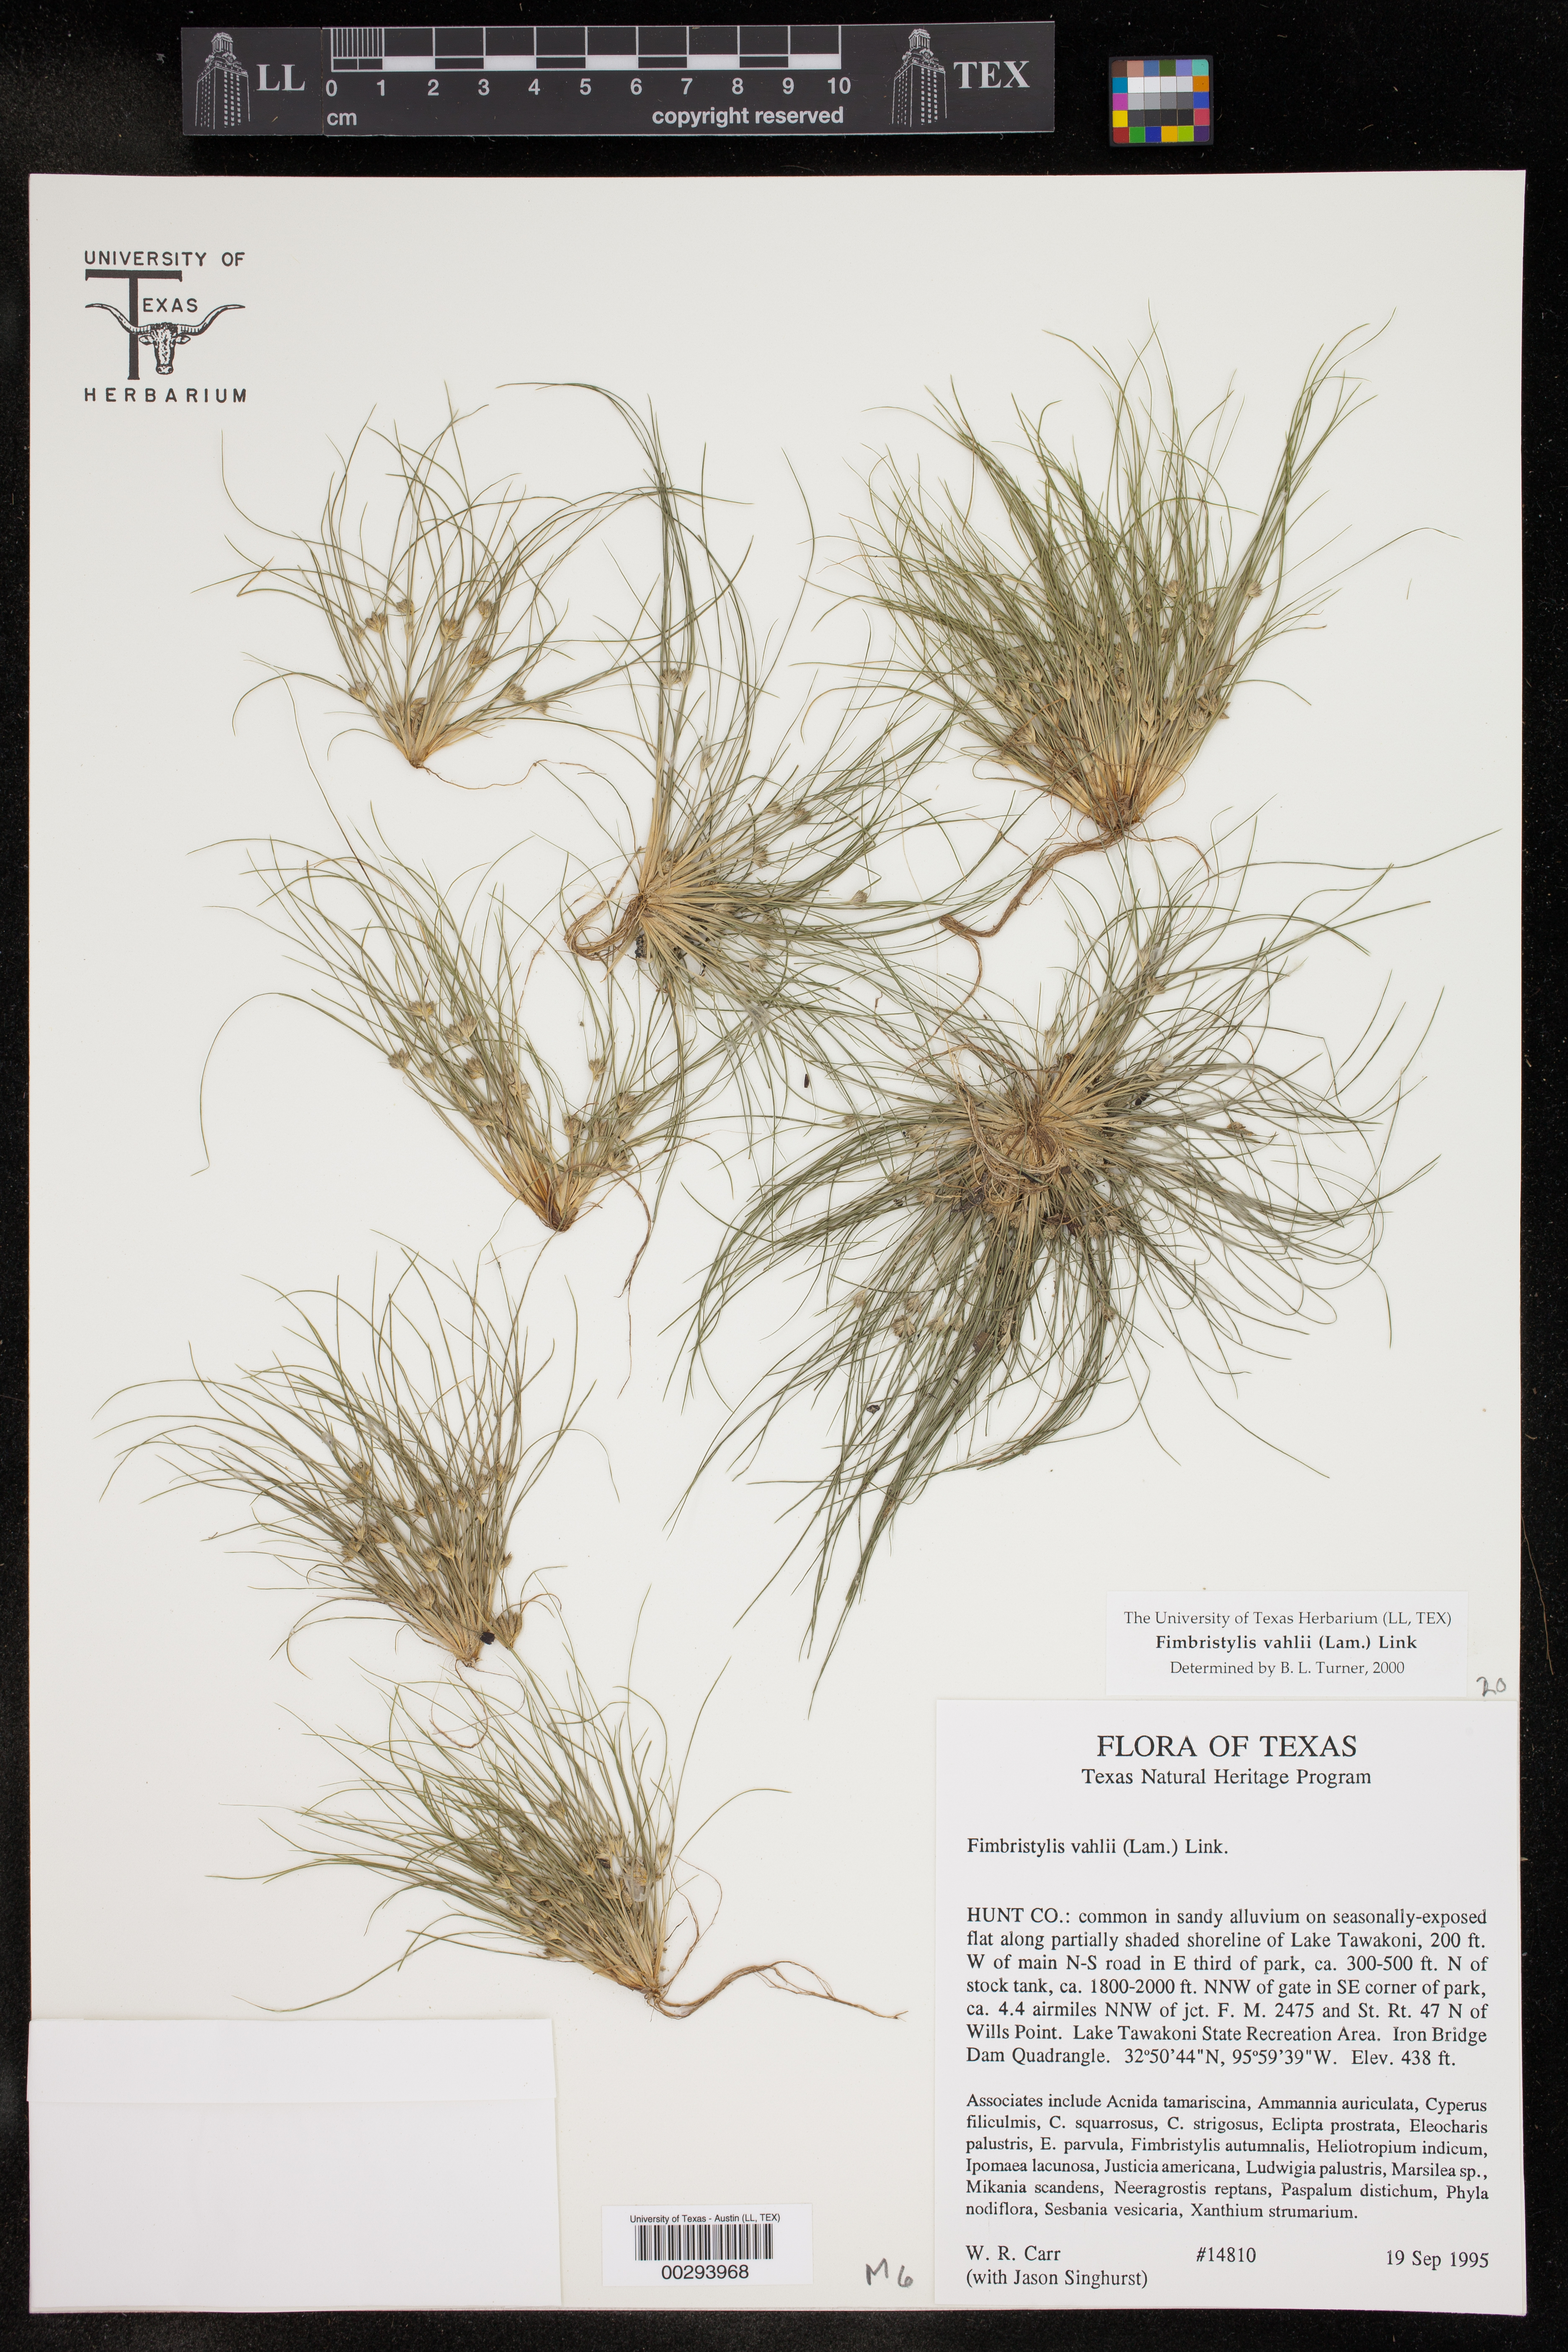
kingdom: Plantae
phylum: Tracheophyta
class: Liliopsida
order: Poales
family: Cyperaceae
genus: Fimbristylis
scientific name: Fimbristylis vahlii
